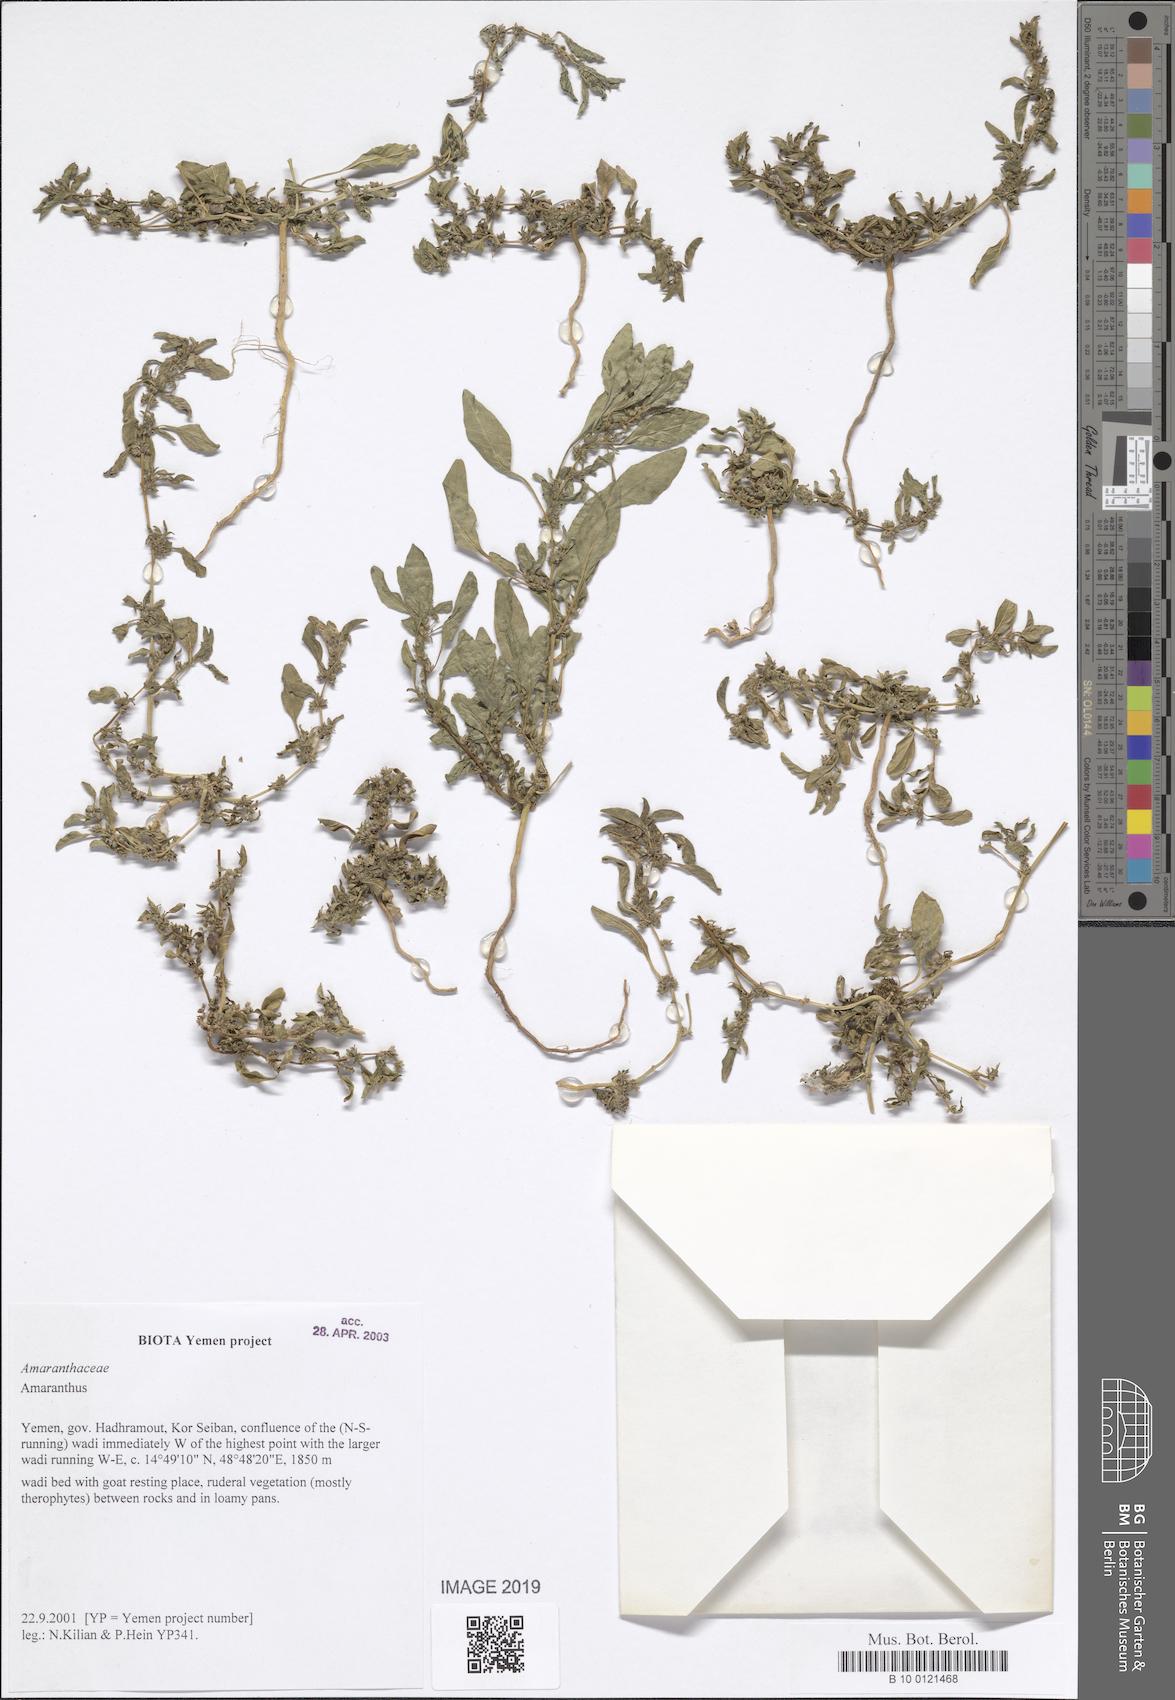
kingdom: Plantae
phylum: Tracheophyta
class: Magnoliopsida
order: Caryophyllales
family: Amaranthaceae
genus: Amaranthus
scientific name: Amaranthus
